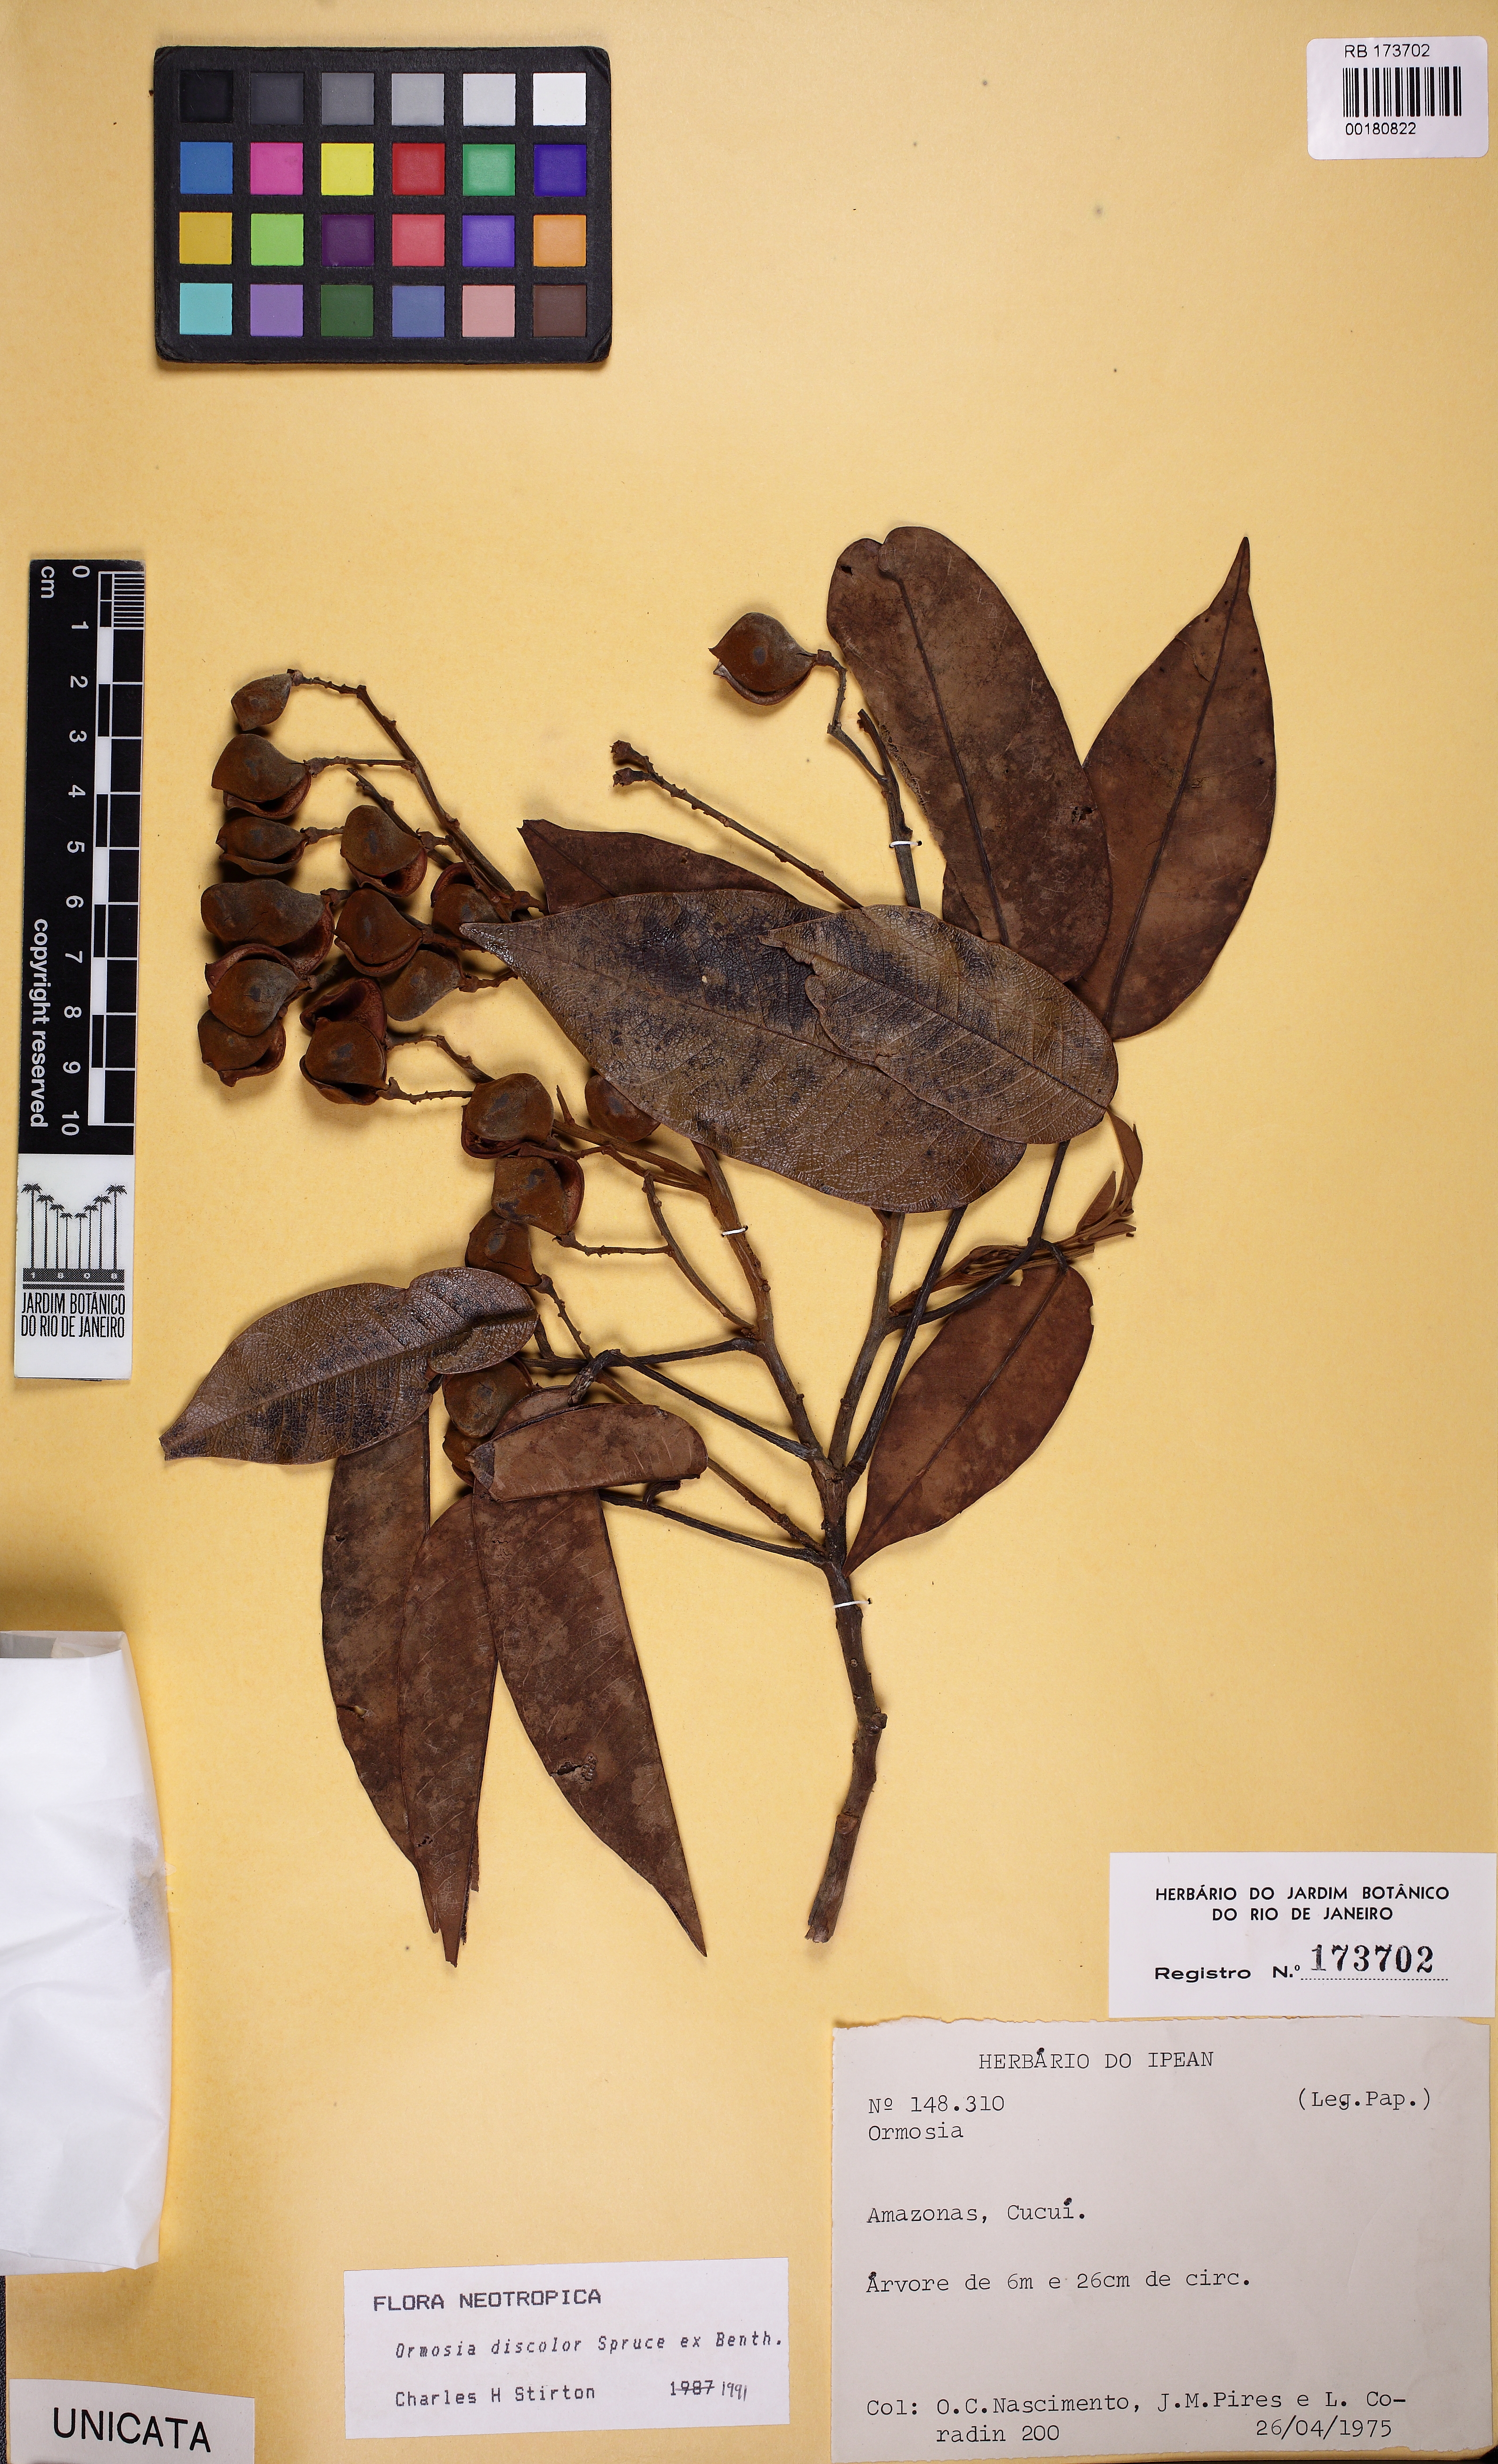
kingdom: Plantae
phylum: Tracheophyta
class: Magnoliopsida
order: Fabales
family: Fabaceae
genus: Ormosia
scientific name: Ormosia discolor
